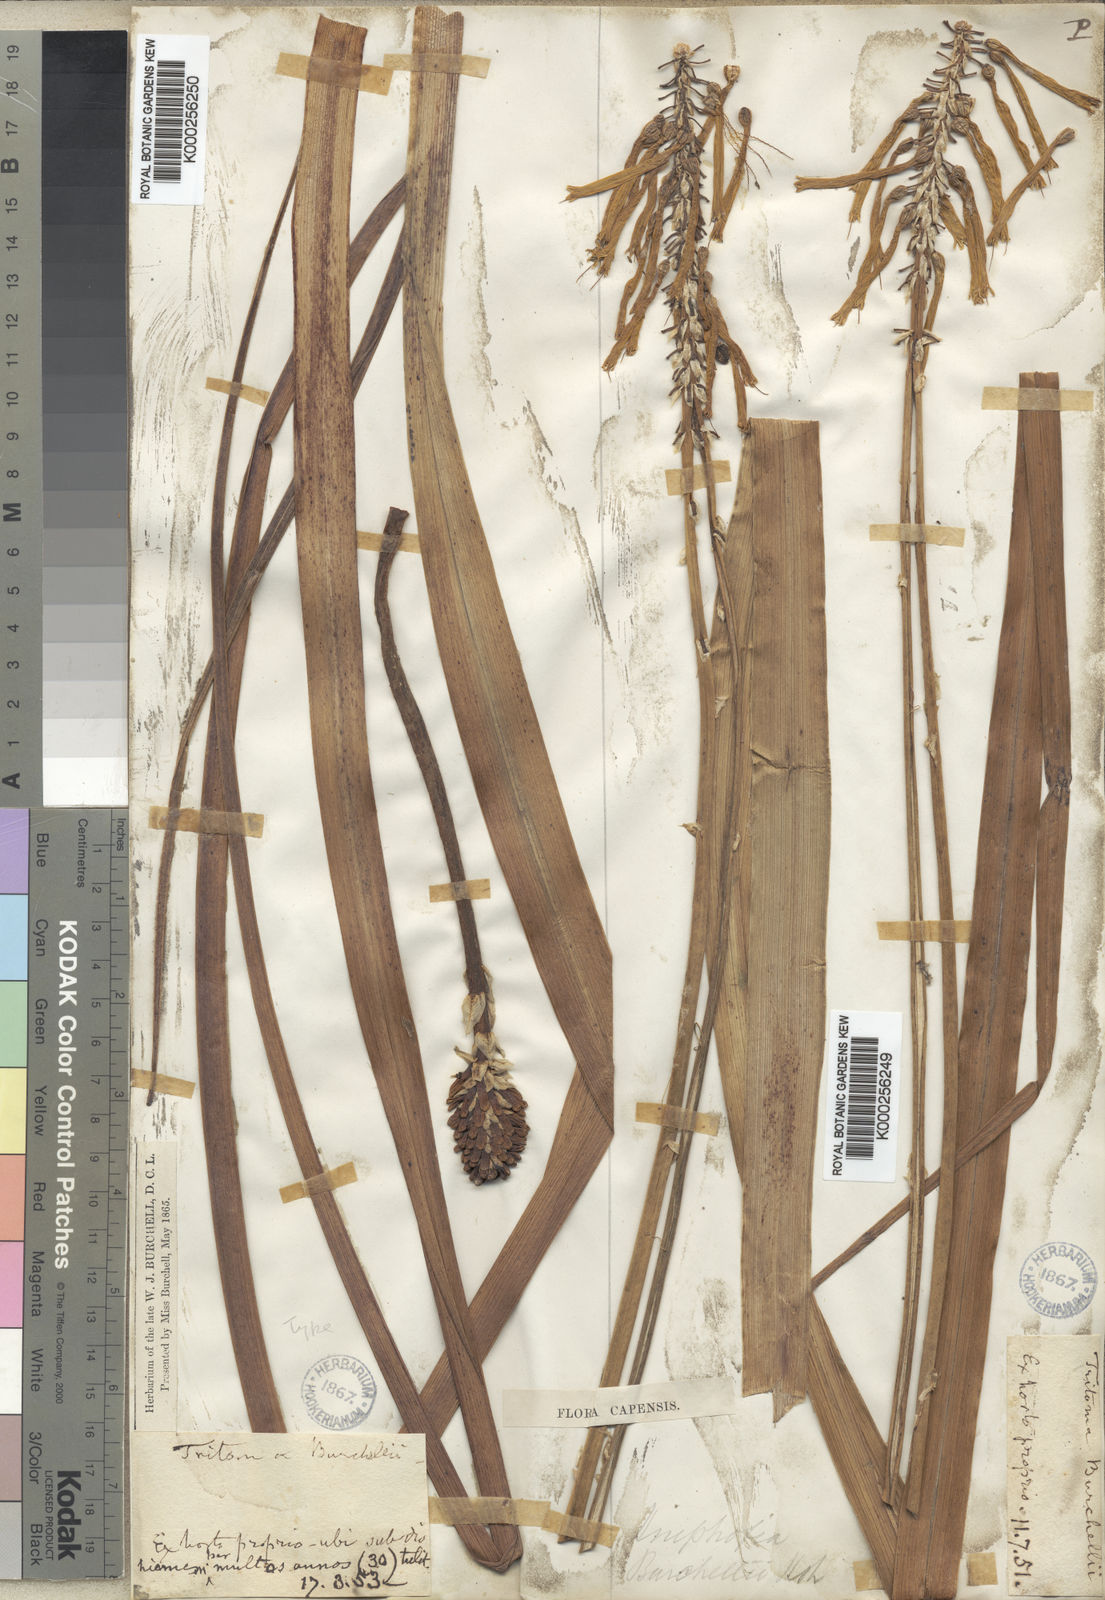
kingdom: Plantae
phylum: Tracheophyta
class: Liliopsida
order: Asparagales
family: Asphodelaceae
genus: Kniphofia
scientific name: Kniphofia uvaria
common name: Red-hot-poker
